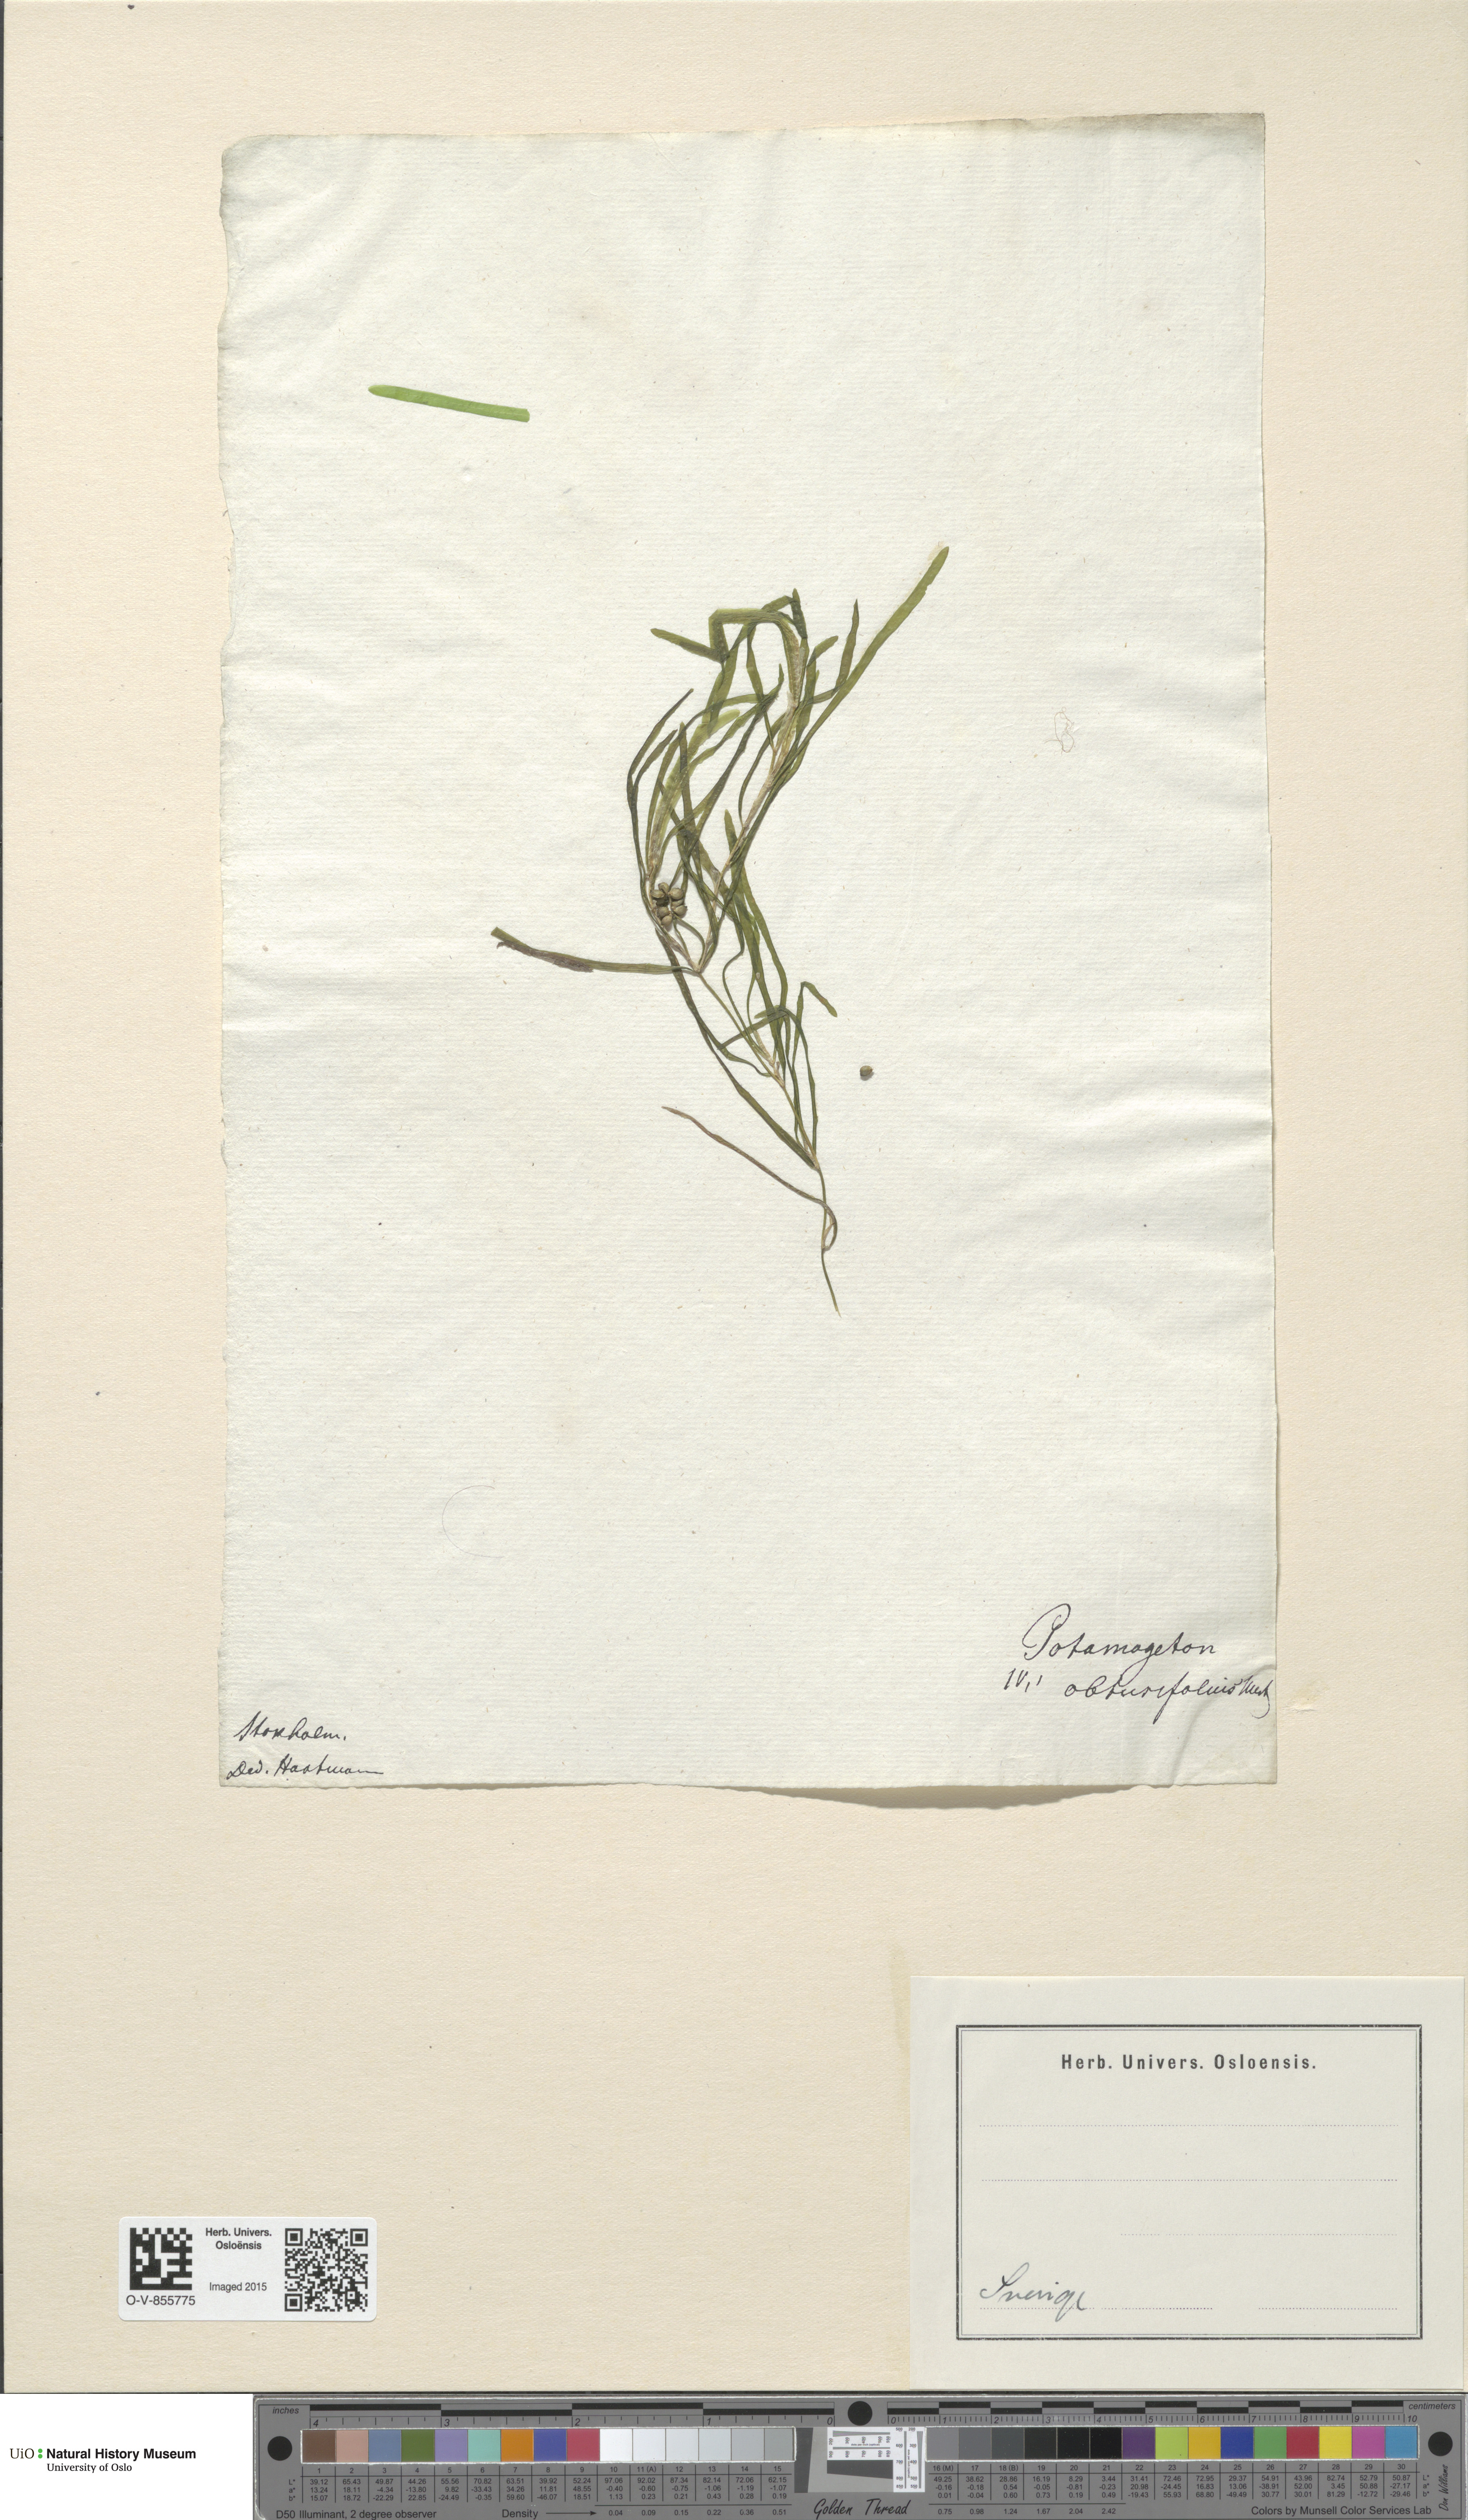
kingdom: Plantae
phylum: Tracheophyta
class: Liliopsida
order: Alismatales
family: Potamogetonaceae
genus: Potamogeton
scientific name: Potamogeton obtusifolius
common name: Blunt-leaved pondweed
